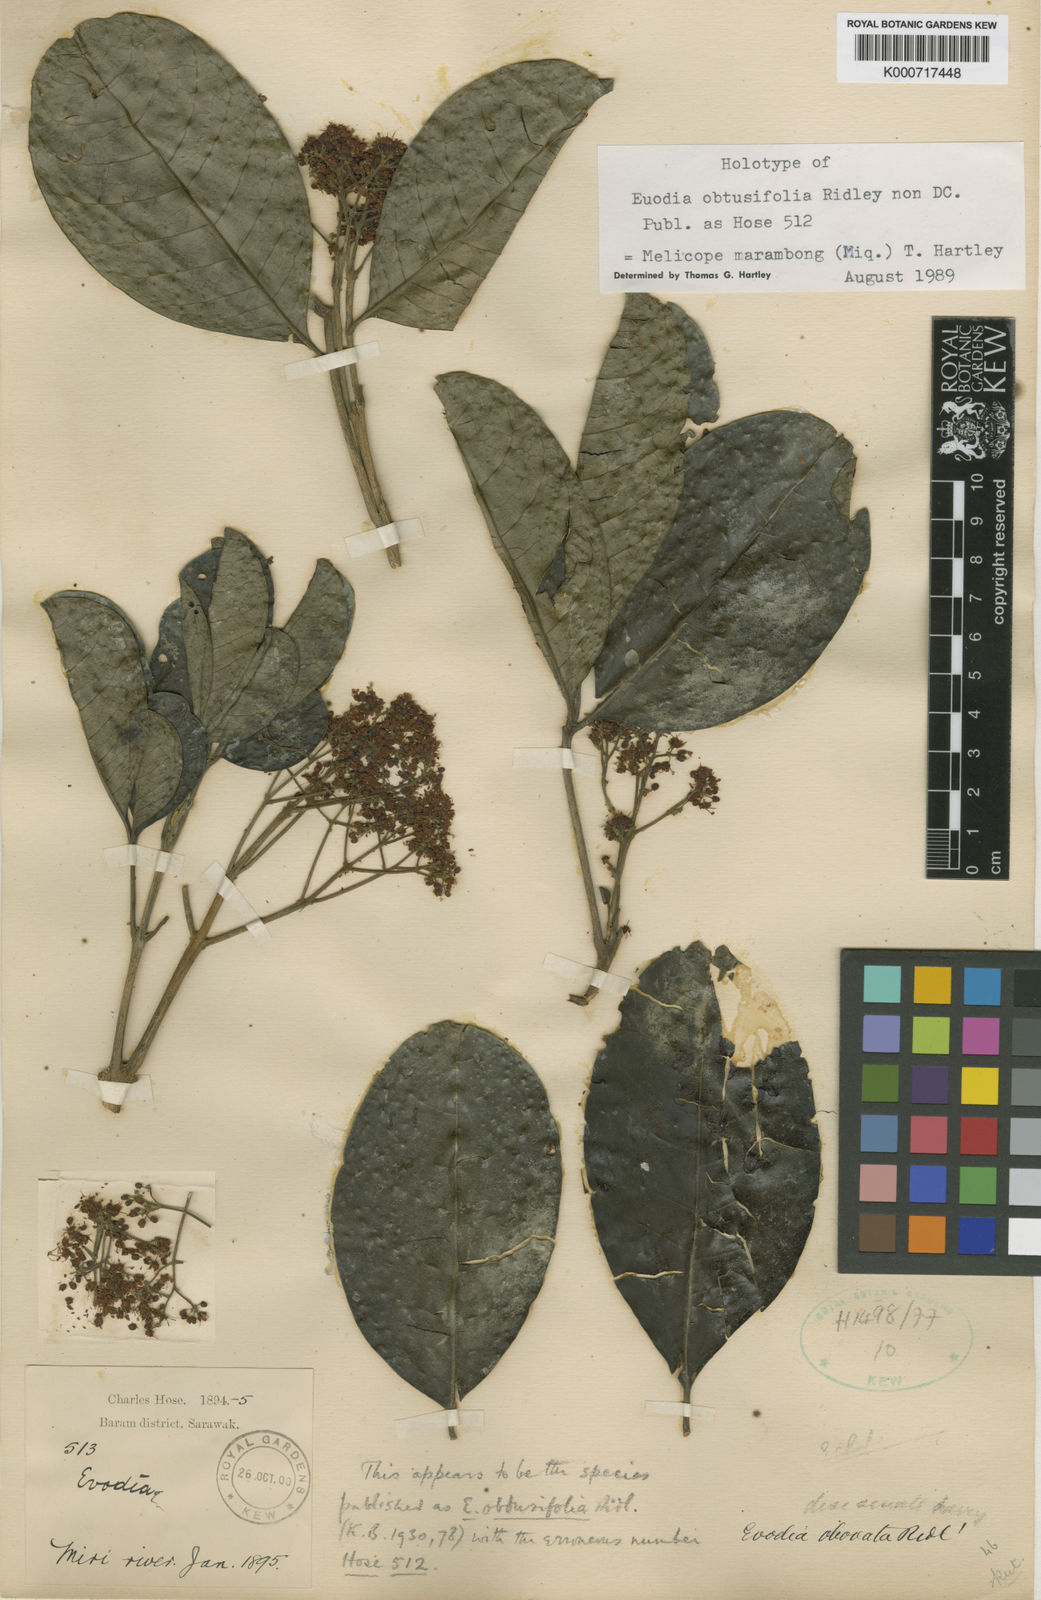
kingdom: Plantae
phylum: Tracheophyta
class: Magnoliopsida
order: Sapindales
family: Rutaceae
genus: Melicope
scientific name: Melicope
